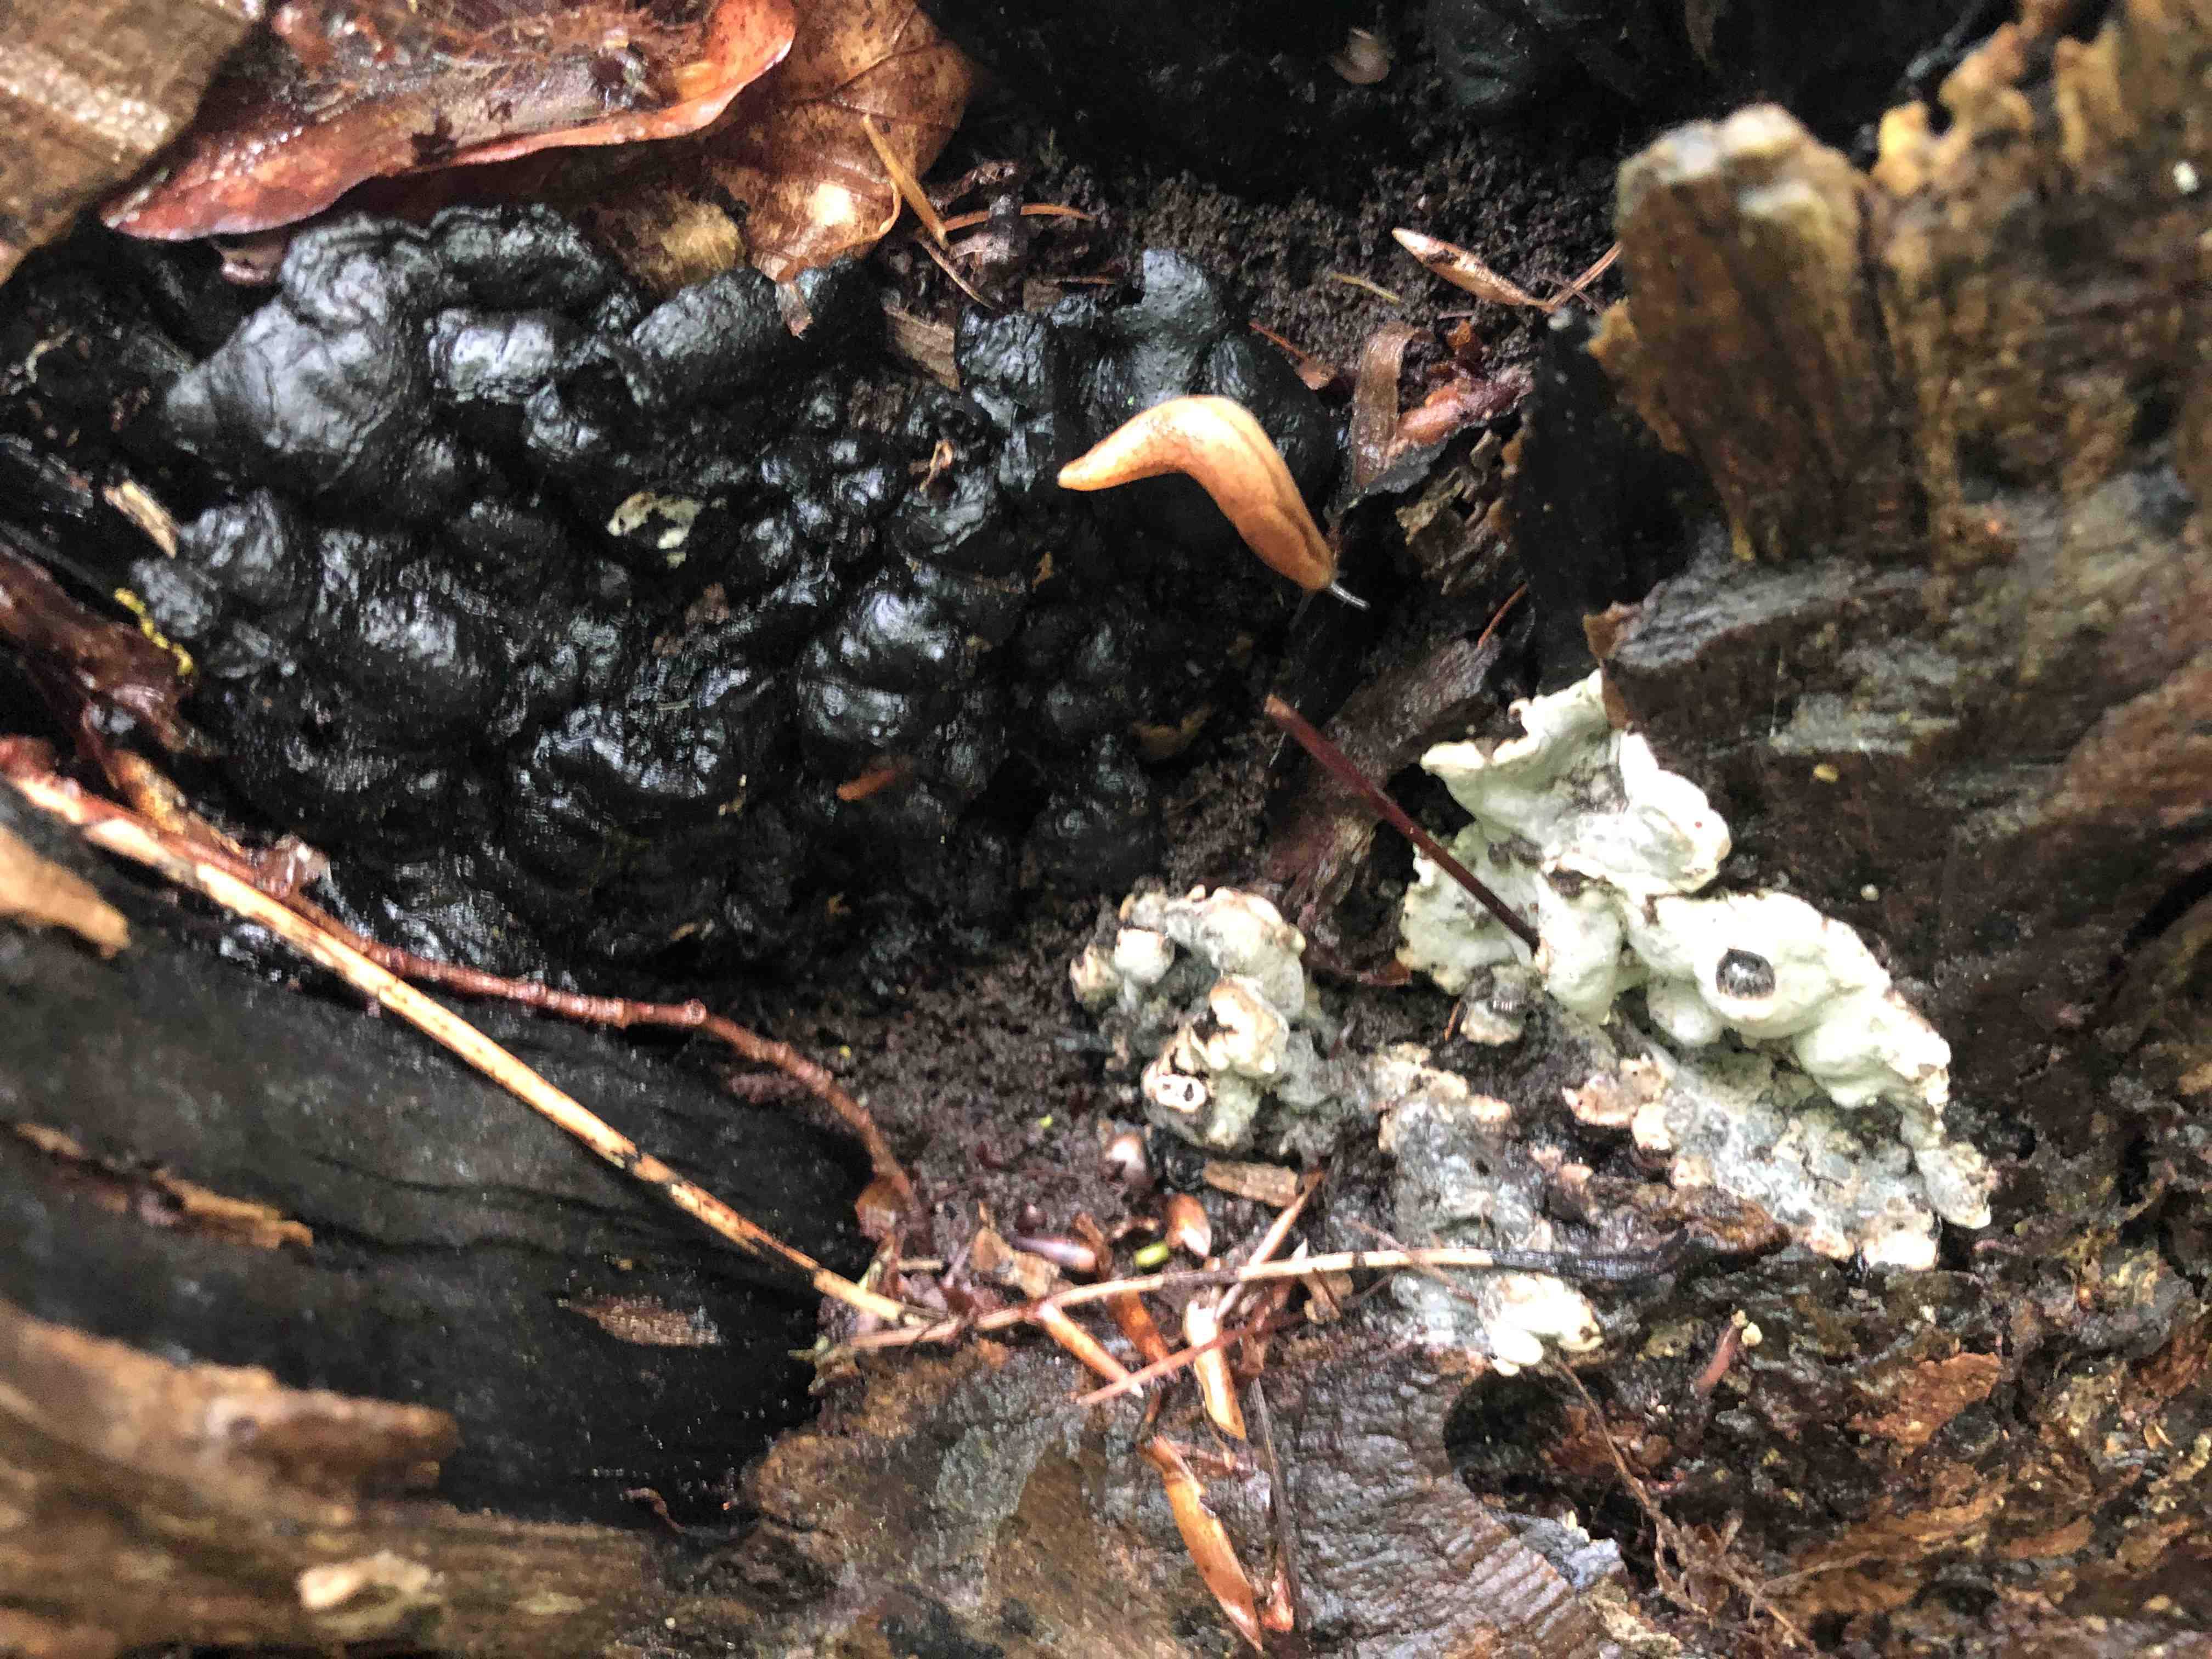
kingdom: Fungi
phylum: Ascomycota
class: Sordariomycetes
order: Xylariales
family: Xylariaceae
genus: Kretzschmaria
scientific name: Kretzschmaria deusta
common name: stor kulsvamp
